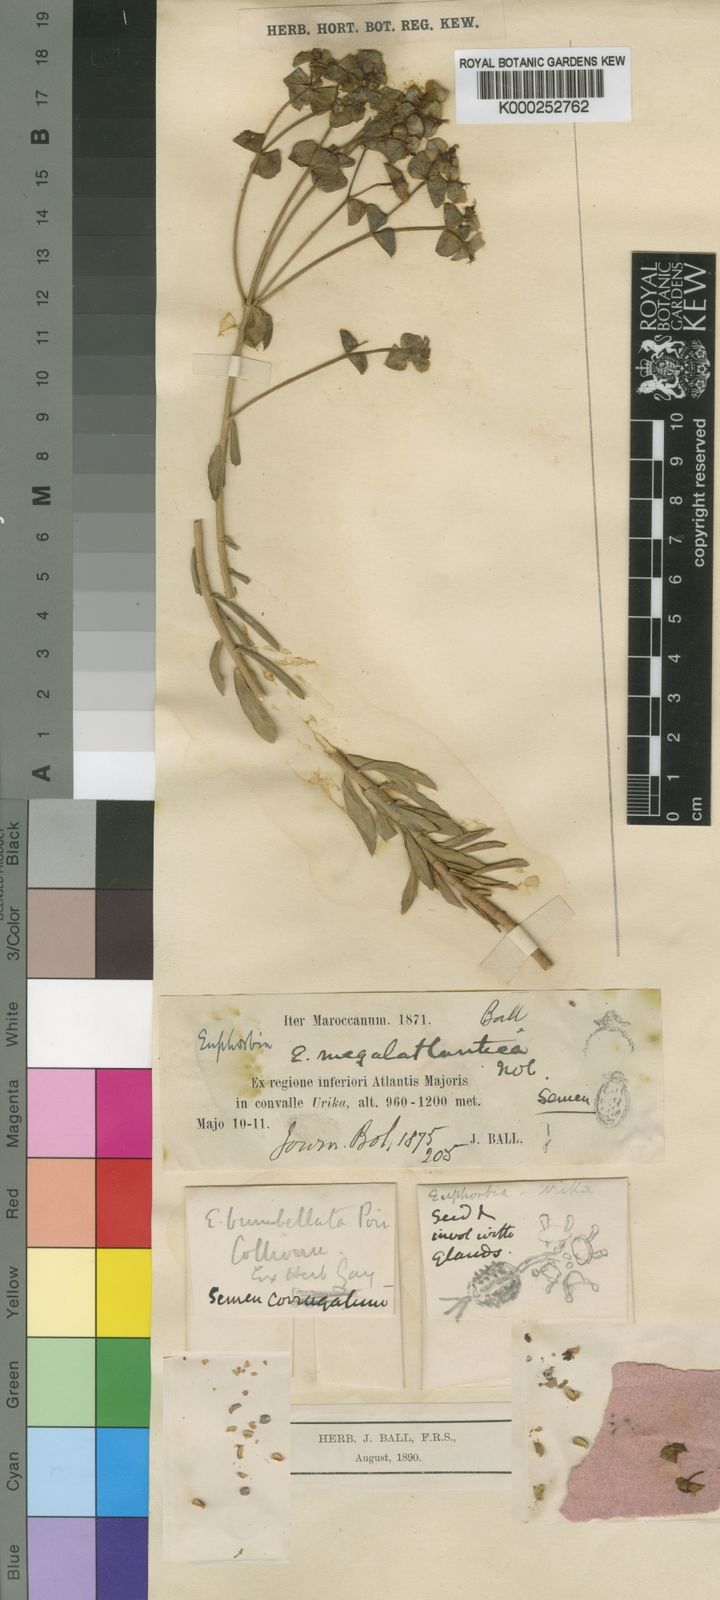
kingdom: Plantae
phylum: Tracheophyta
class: Magnoliopsida
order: Malpighiales
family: Euphorbiaceae
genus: Euphorbia
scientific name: Euphorbia
